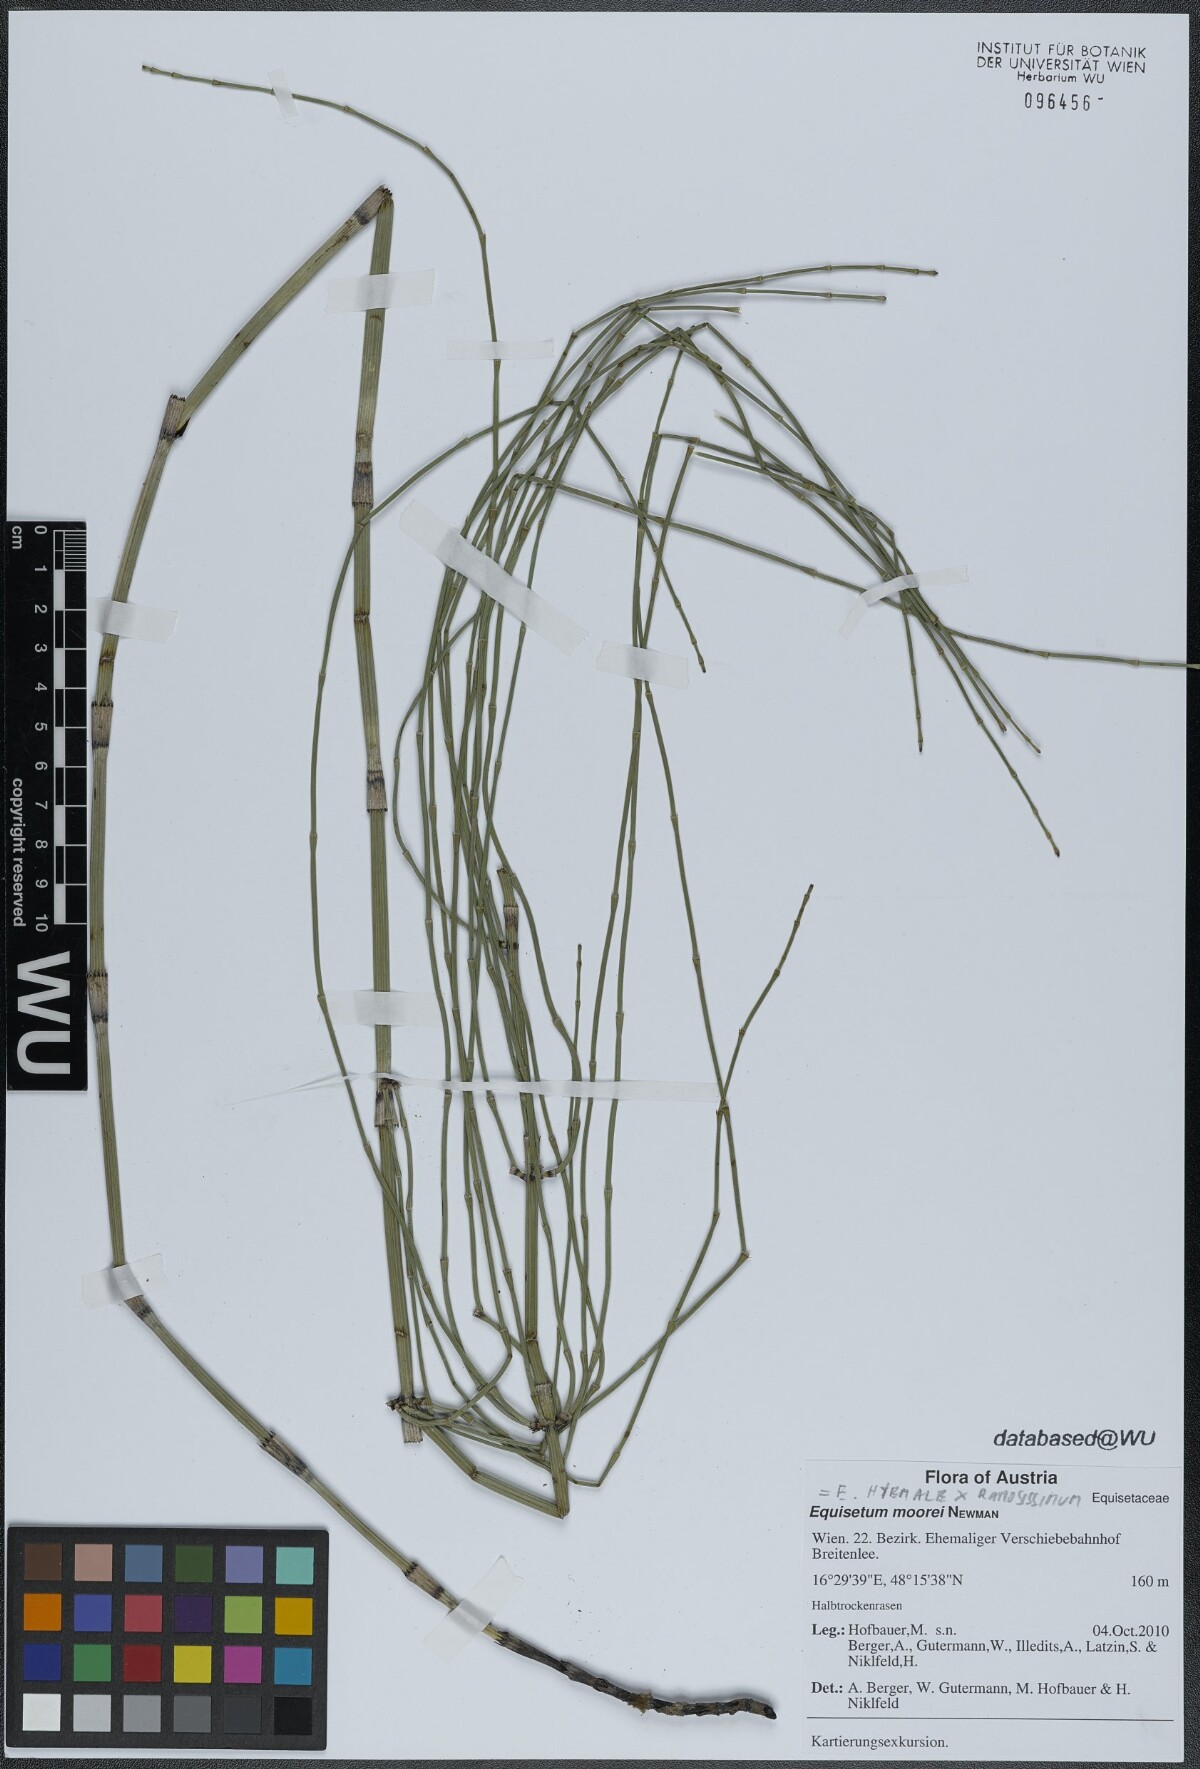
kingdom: Plantae
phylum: Tracheophyta
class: Polypodiopsida
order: Equisetales
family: Equisetaceae
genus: Equisetum
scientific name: Equisetum moorei
